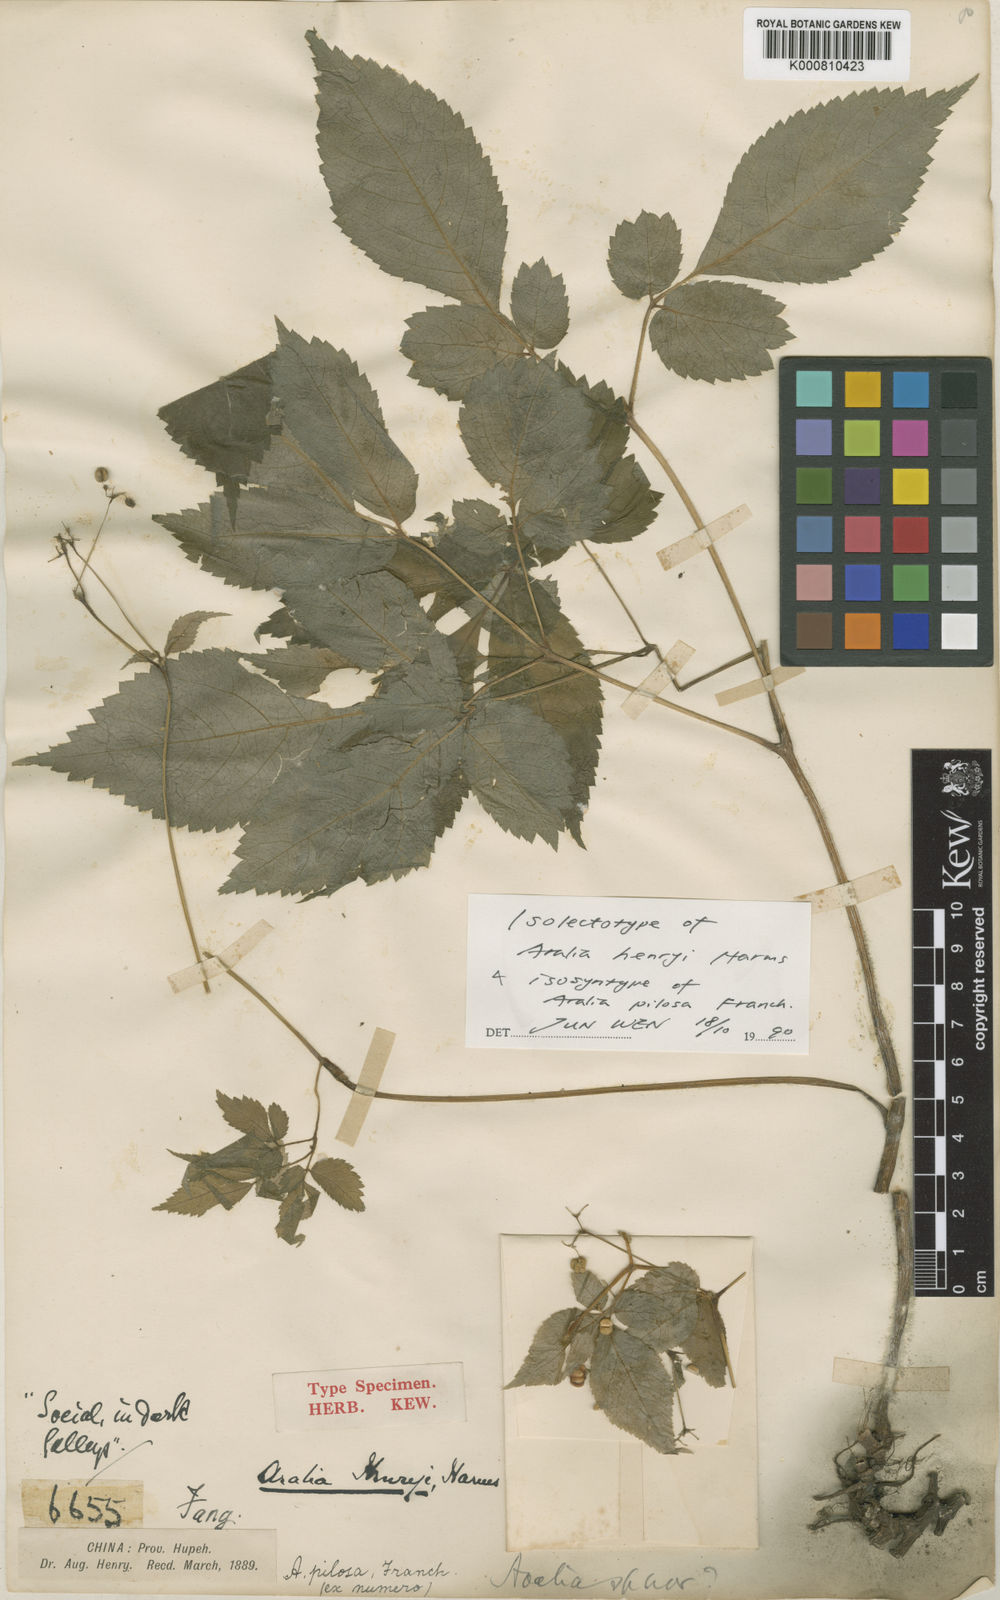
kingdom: Plantae
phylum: Tracheophyta
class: Magnoliopsida
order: Apiales
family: Araliaceae
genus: Aralia
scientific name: Aralia henryi
